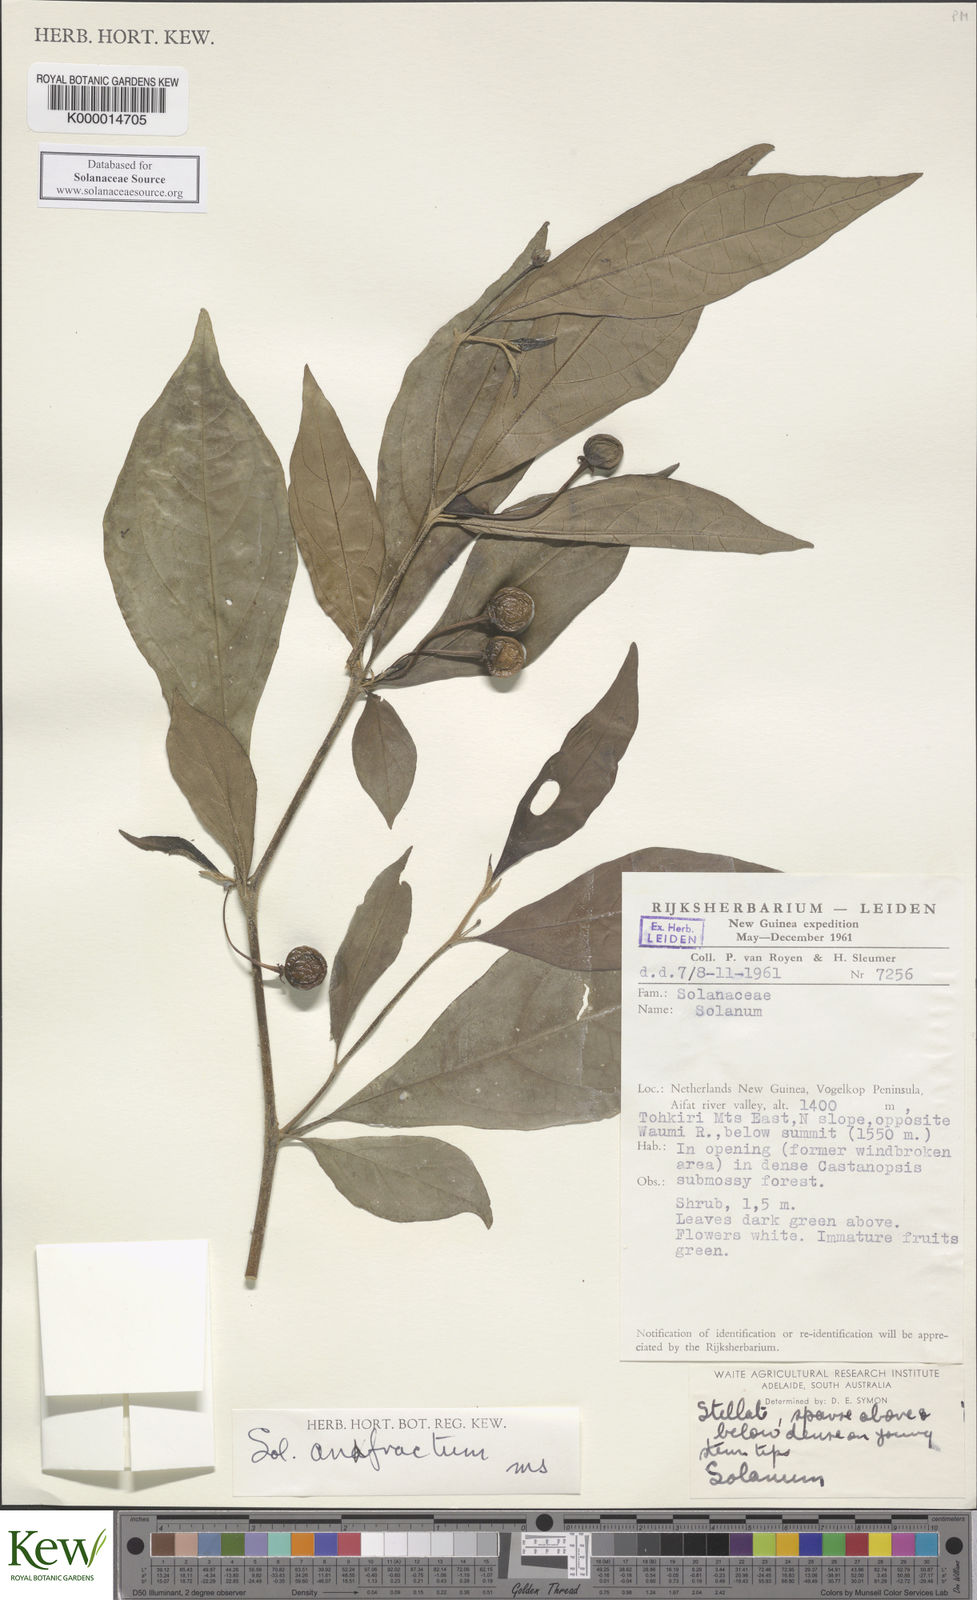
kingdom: Plantae
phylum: Tracheophyta
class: Magnoliopsida
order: Solanales
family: Solanaceae
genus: Solanum
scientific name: Solanum anfractum
